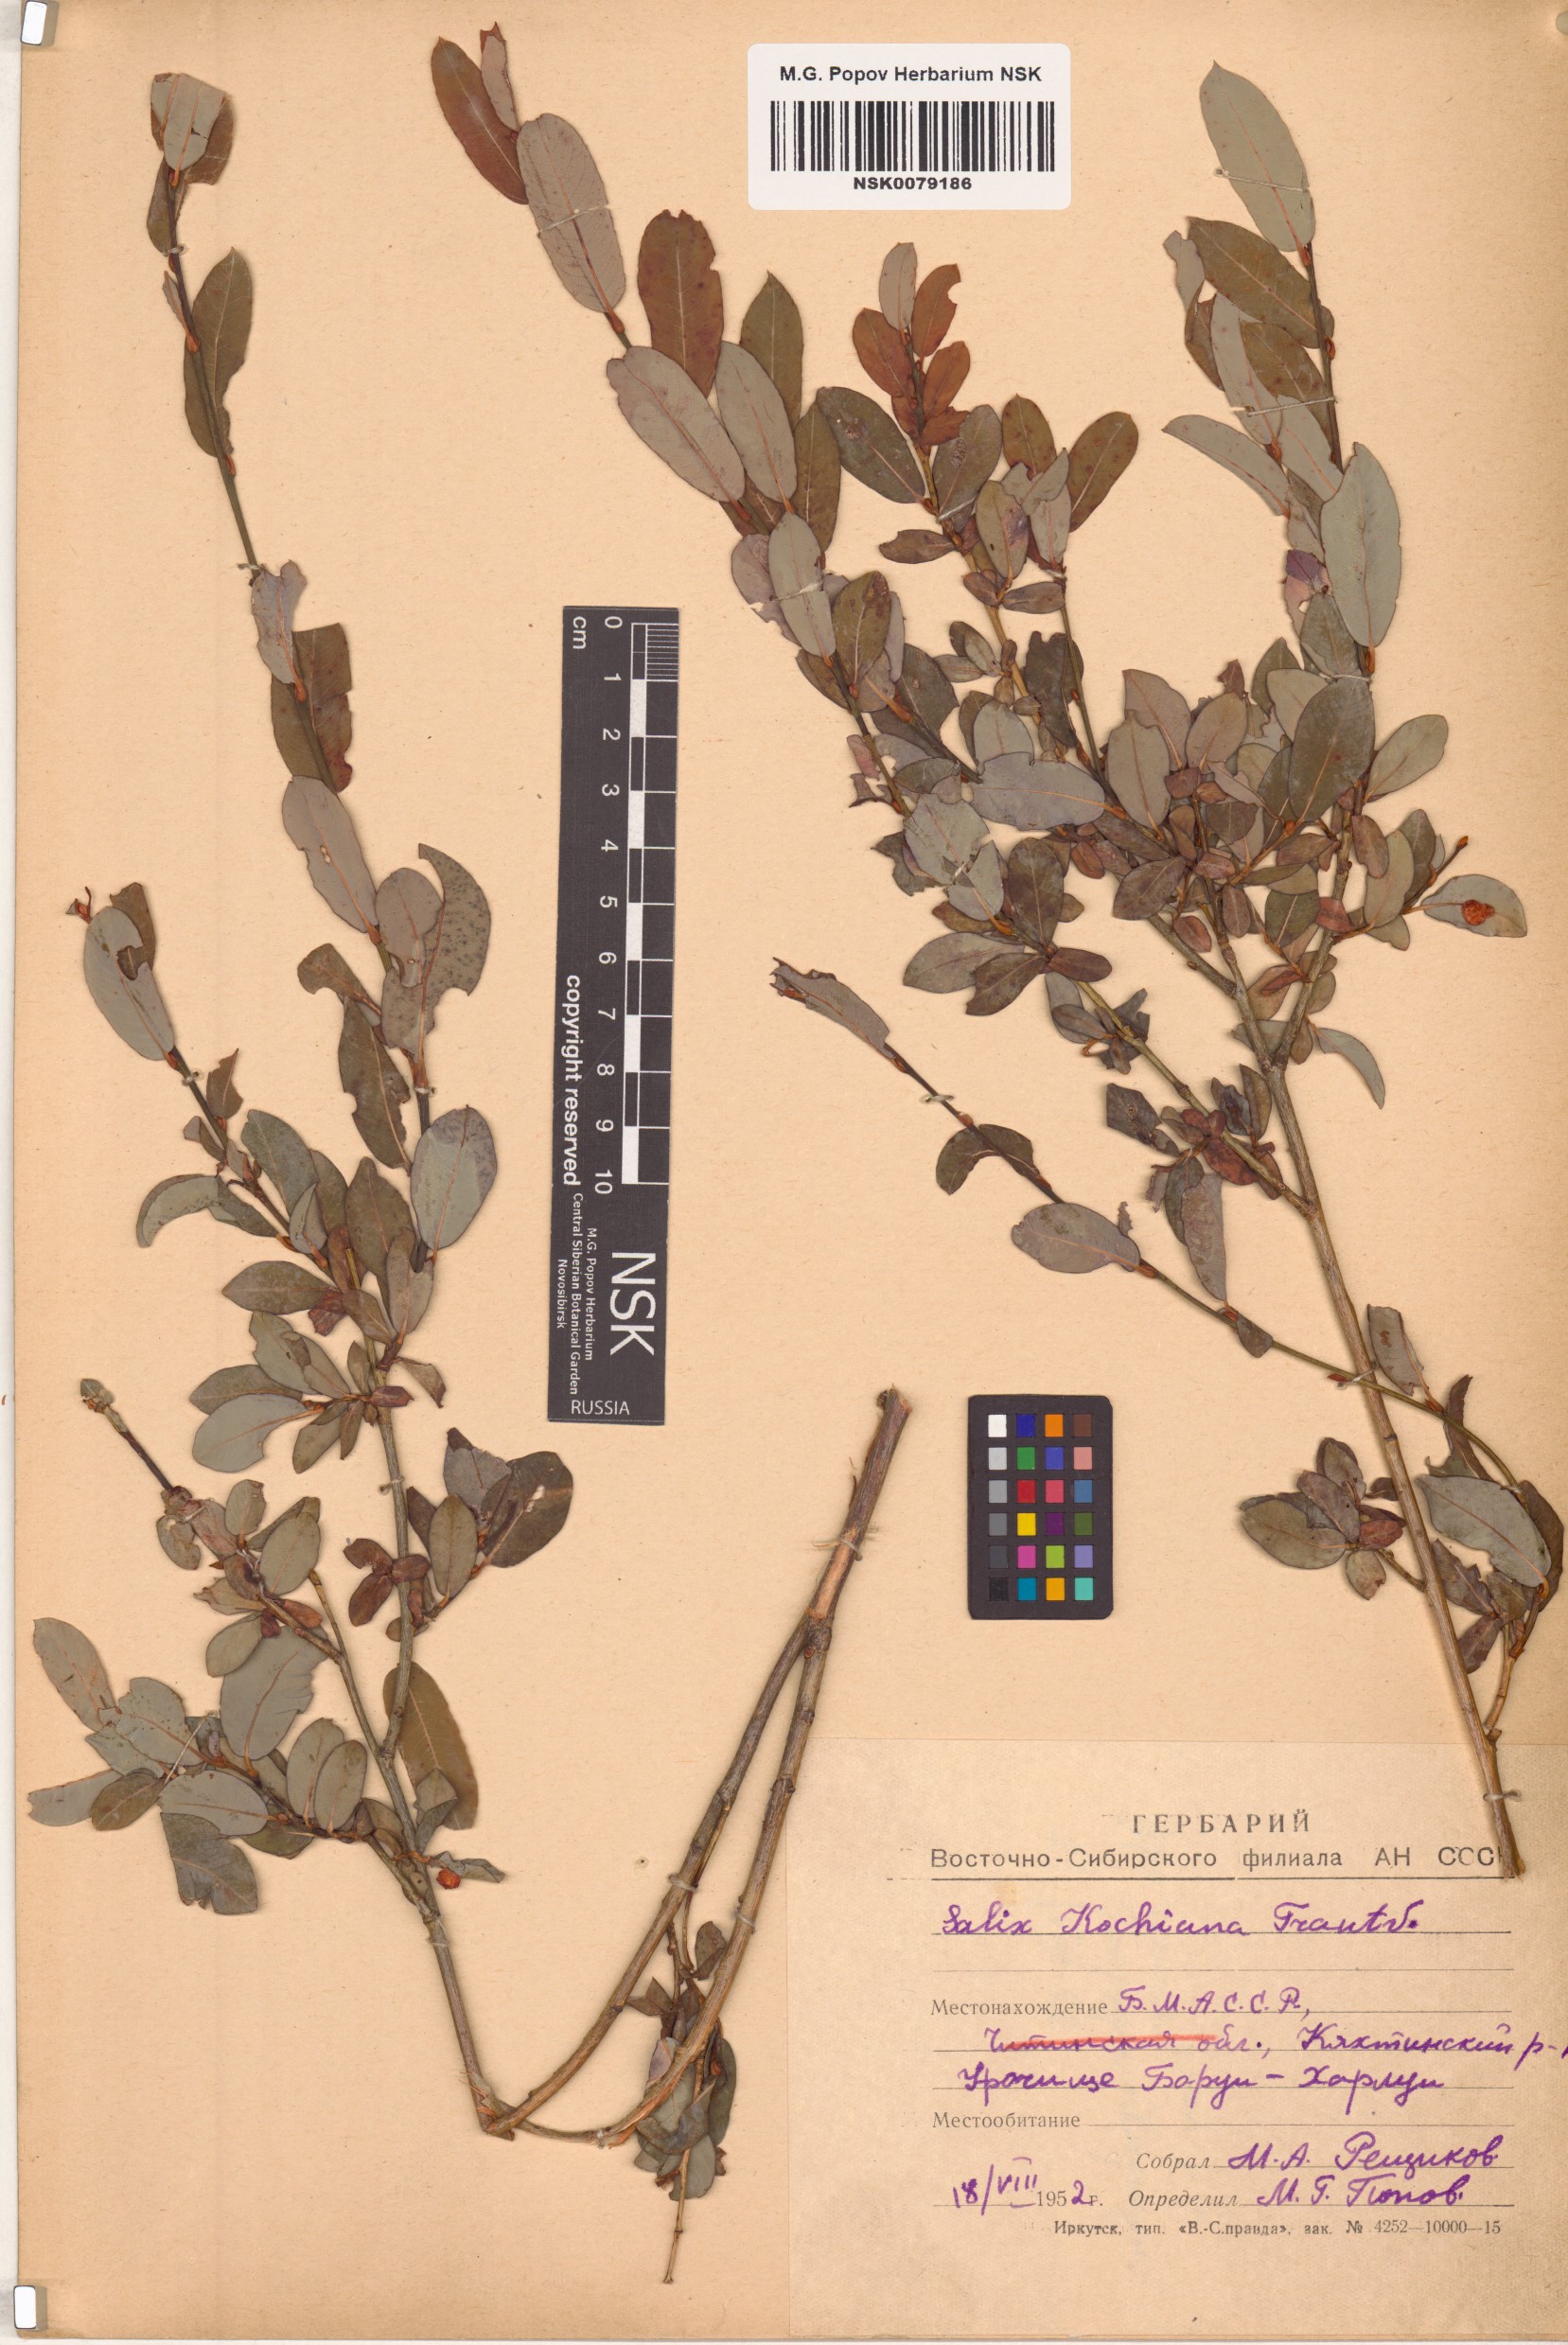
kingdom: Plantae
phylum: Tracheophyta
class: Magnoliopsida
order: Malpighiales
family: Salicaceae
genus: Salix
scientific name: Salix kochiana
